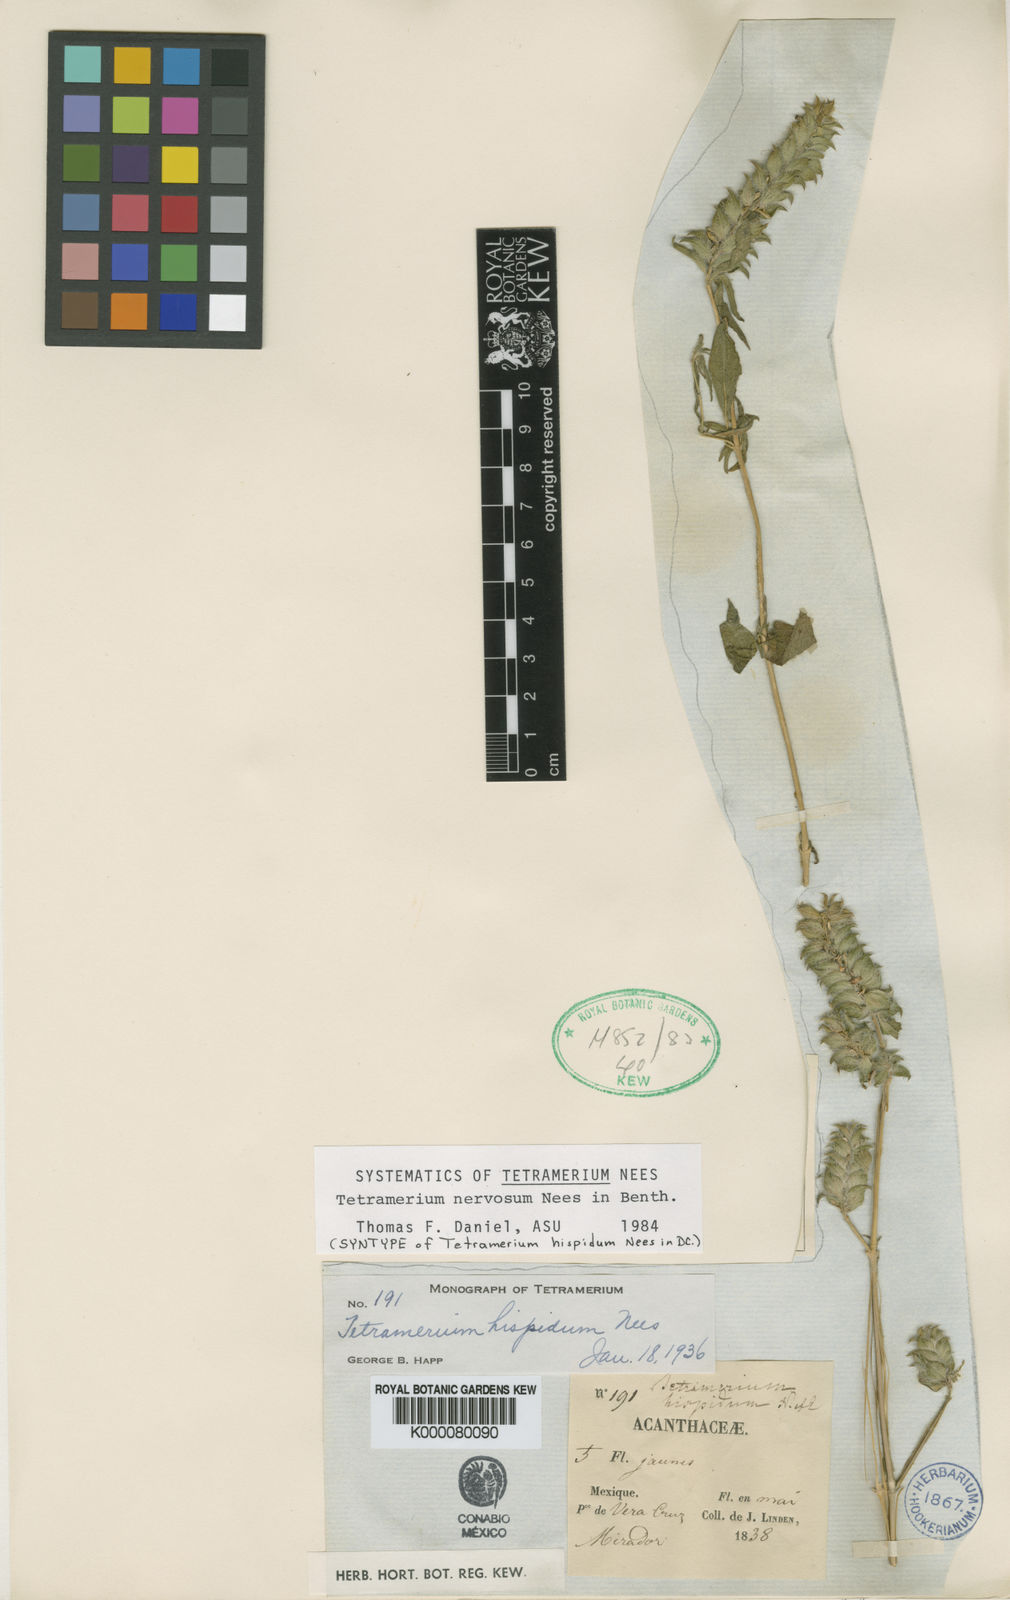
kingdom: Plantae
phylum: Tracheophyta
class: Magnoliopsida
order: Lamiales
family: Acanthaceae
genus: Tetramerium
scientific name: Tetramerium nervosum
